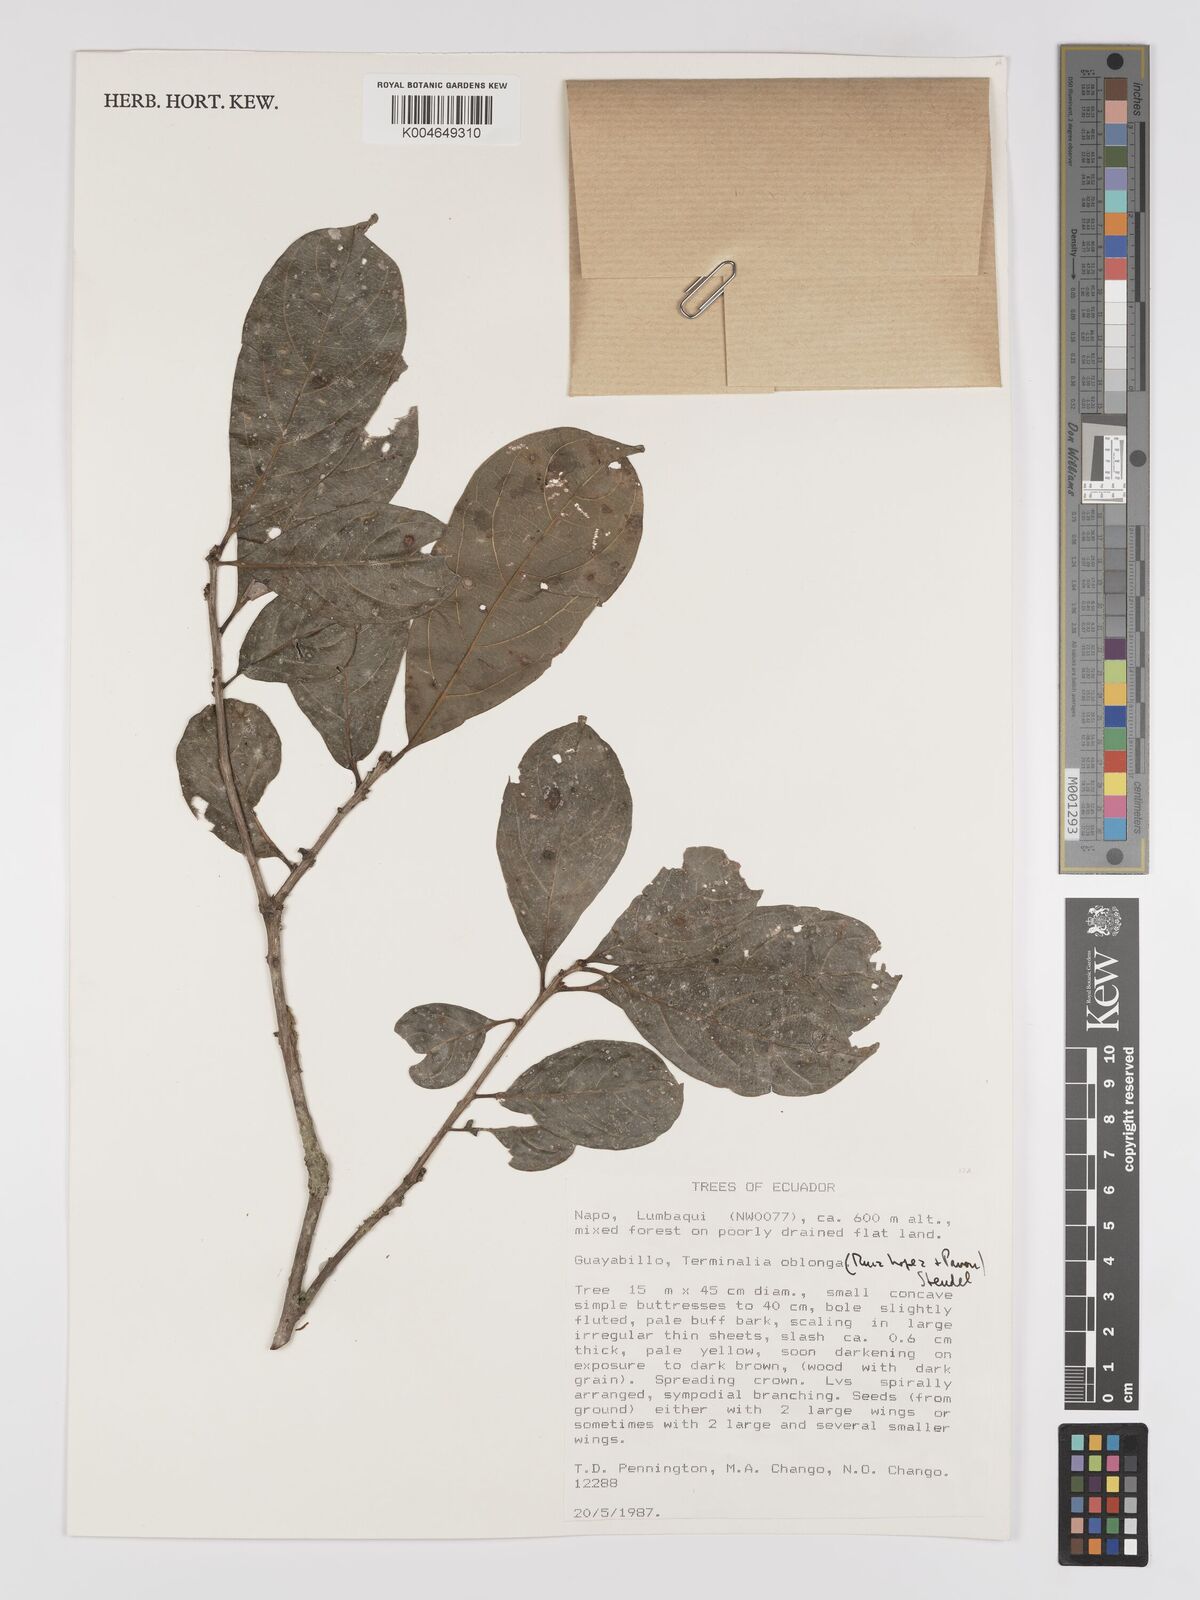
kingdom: Plantae
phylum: Tracheophyta
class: Magnoliopsida
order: Myrtales
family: Combretaceae
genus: Terminalia
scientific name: Terminalia oblonga
